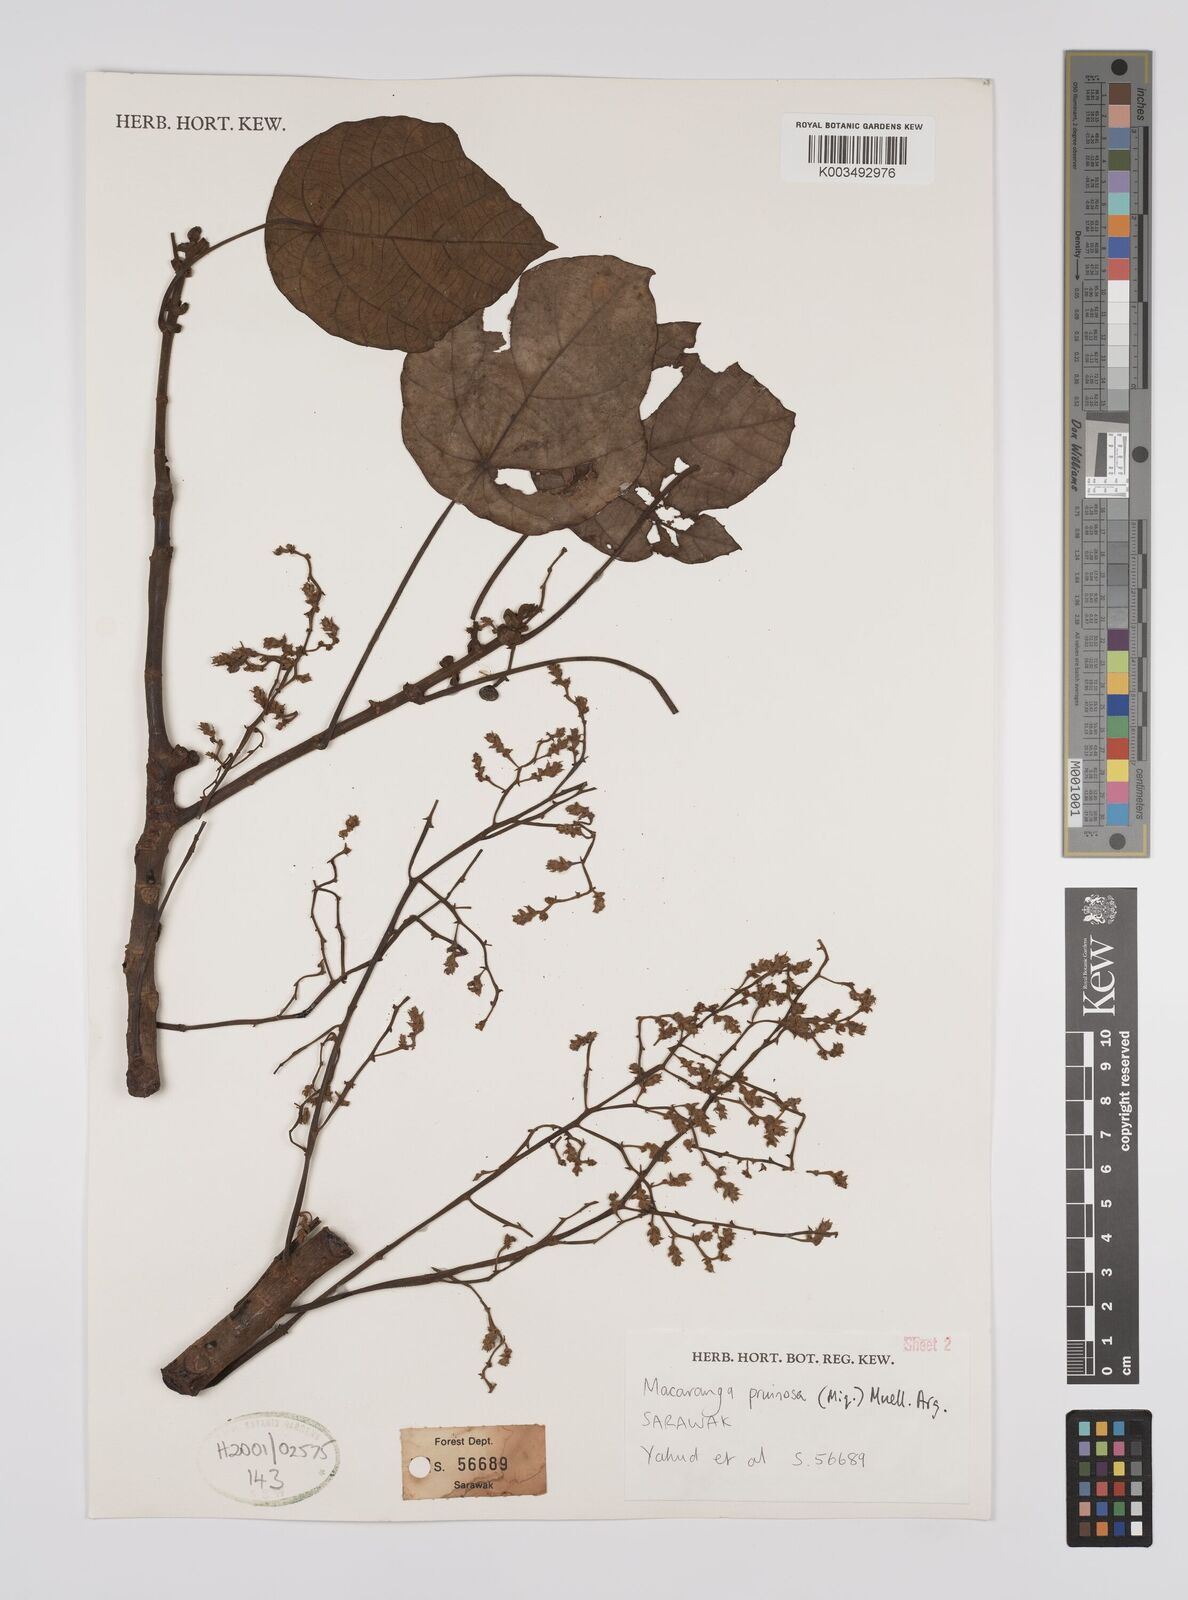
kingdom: Plantae
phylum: Tracheophyta
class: Magnoliopsida
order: Malpighiales
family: Euphorbiaceae
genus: Macaranga
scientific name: Macaranga pruinosa
